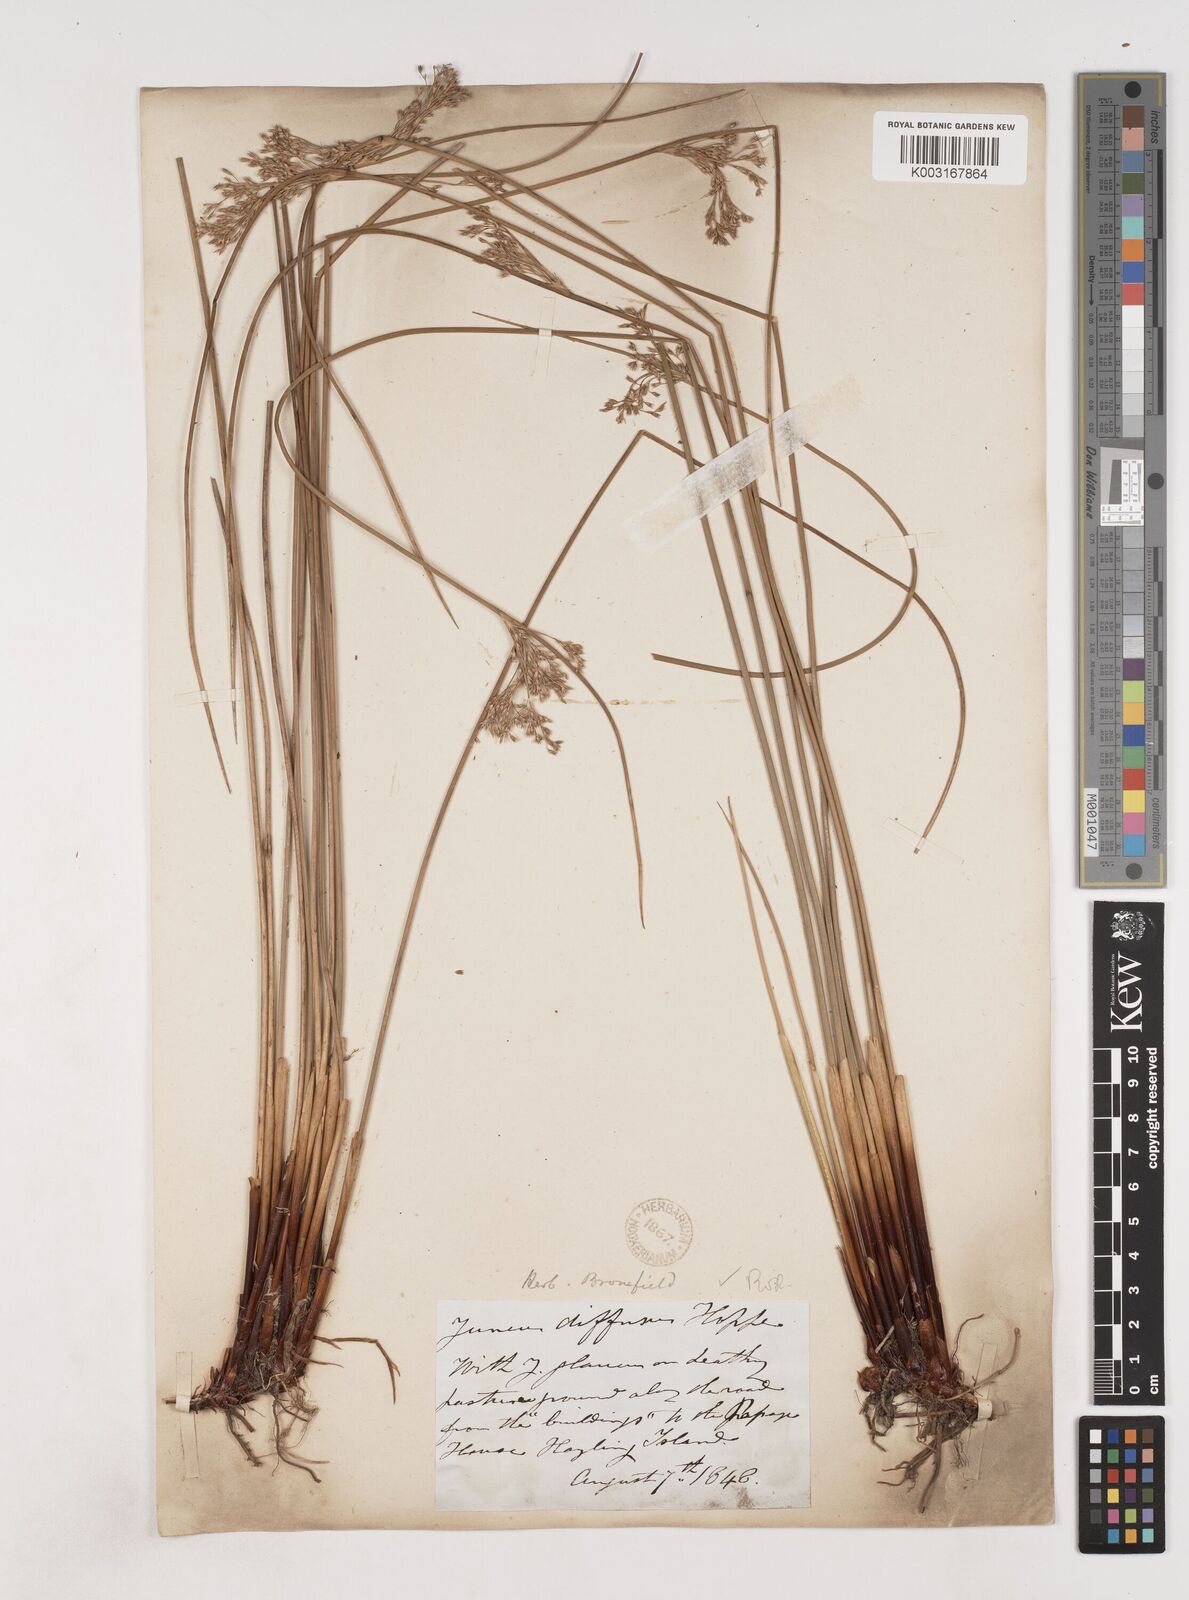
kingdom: Plantae
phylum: Tracheophyta
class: Liliopsida
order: Poales
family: Juncaceae
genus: Juncus
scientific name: Juncus effusus
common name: Soft rush
